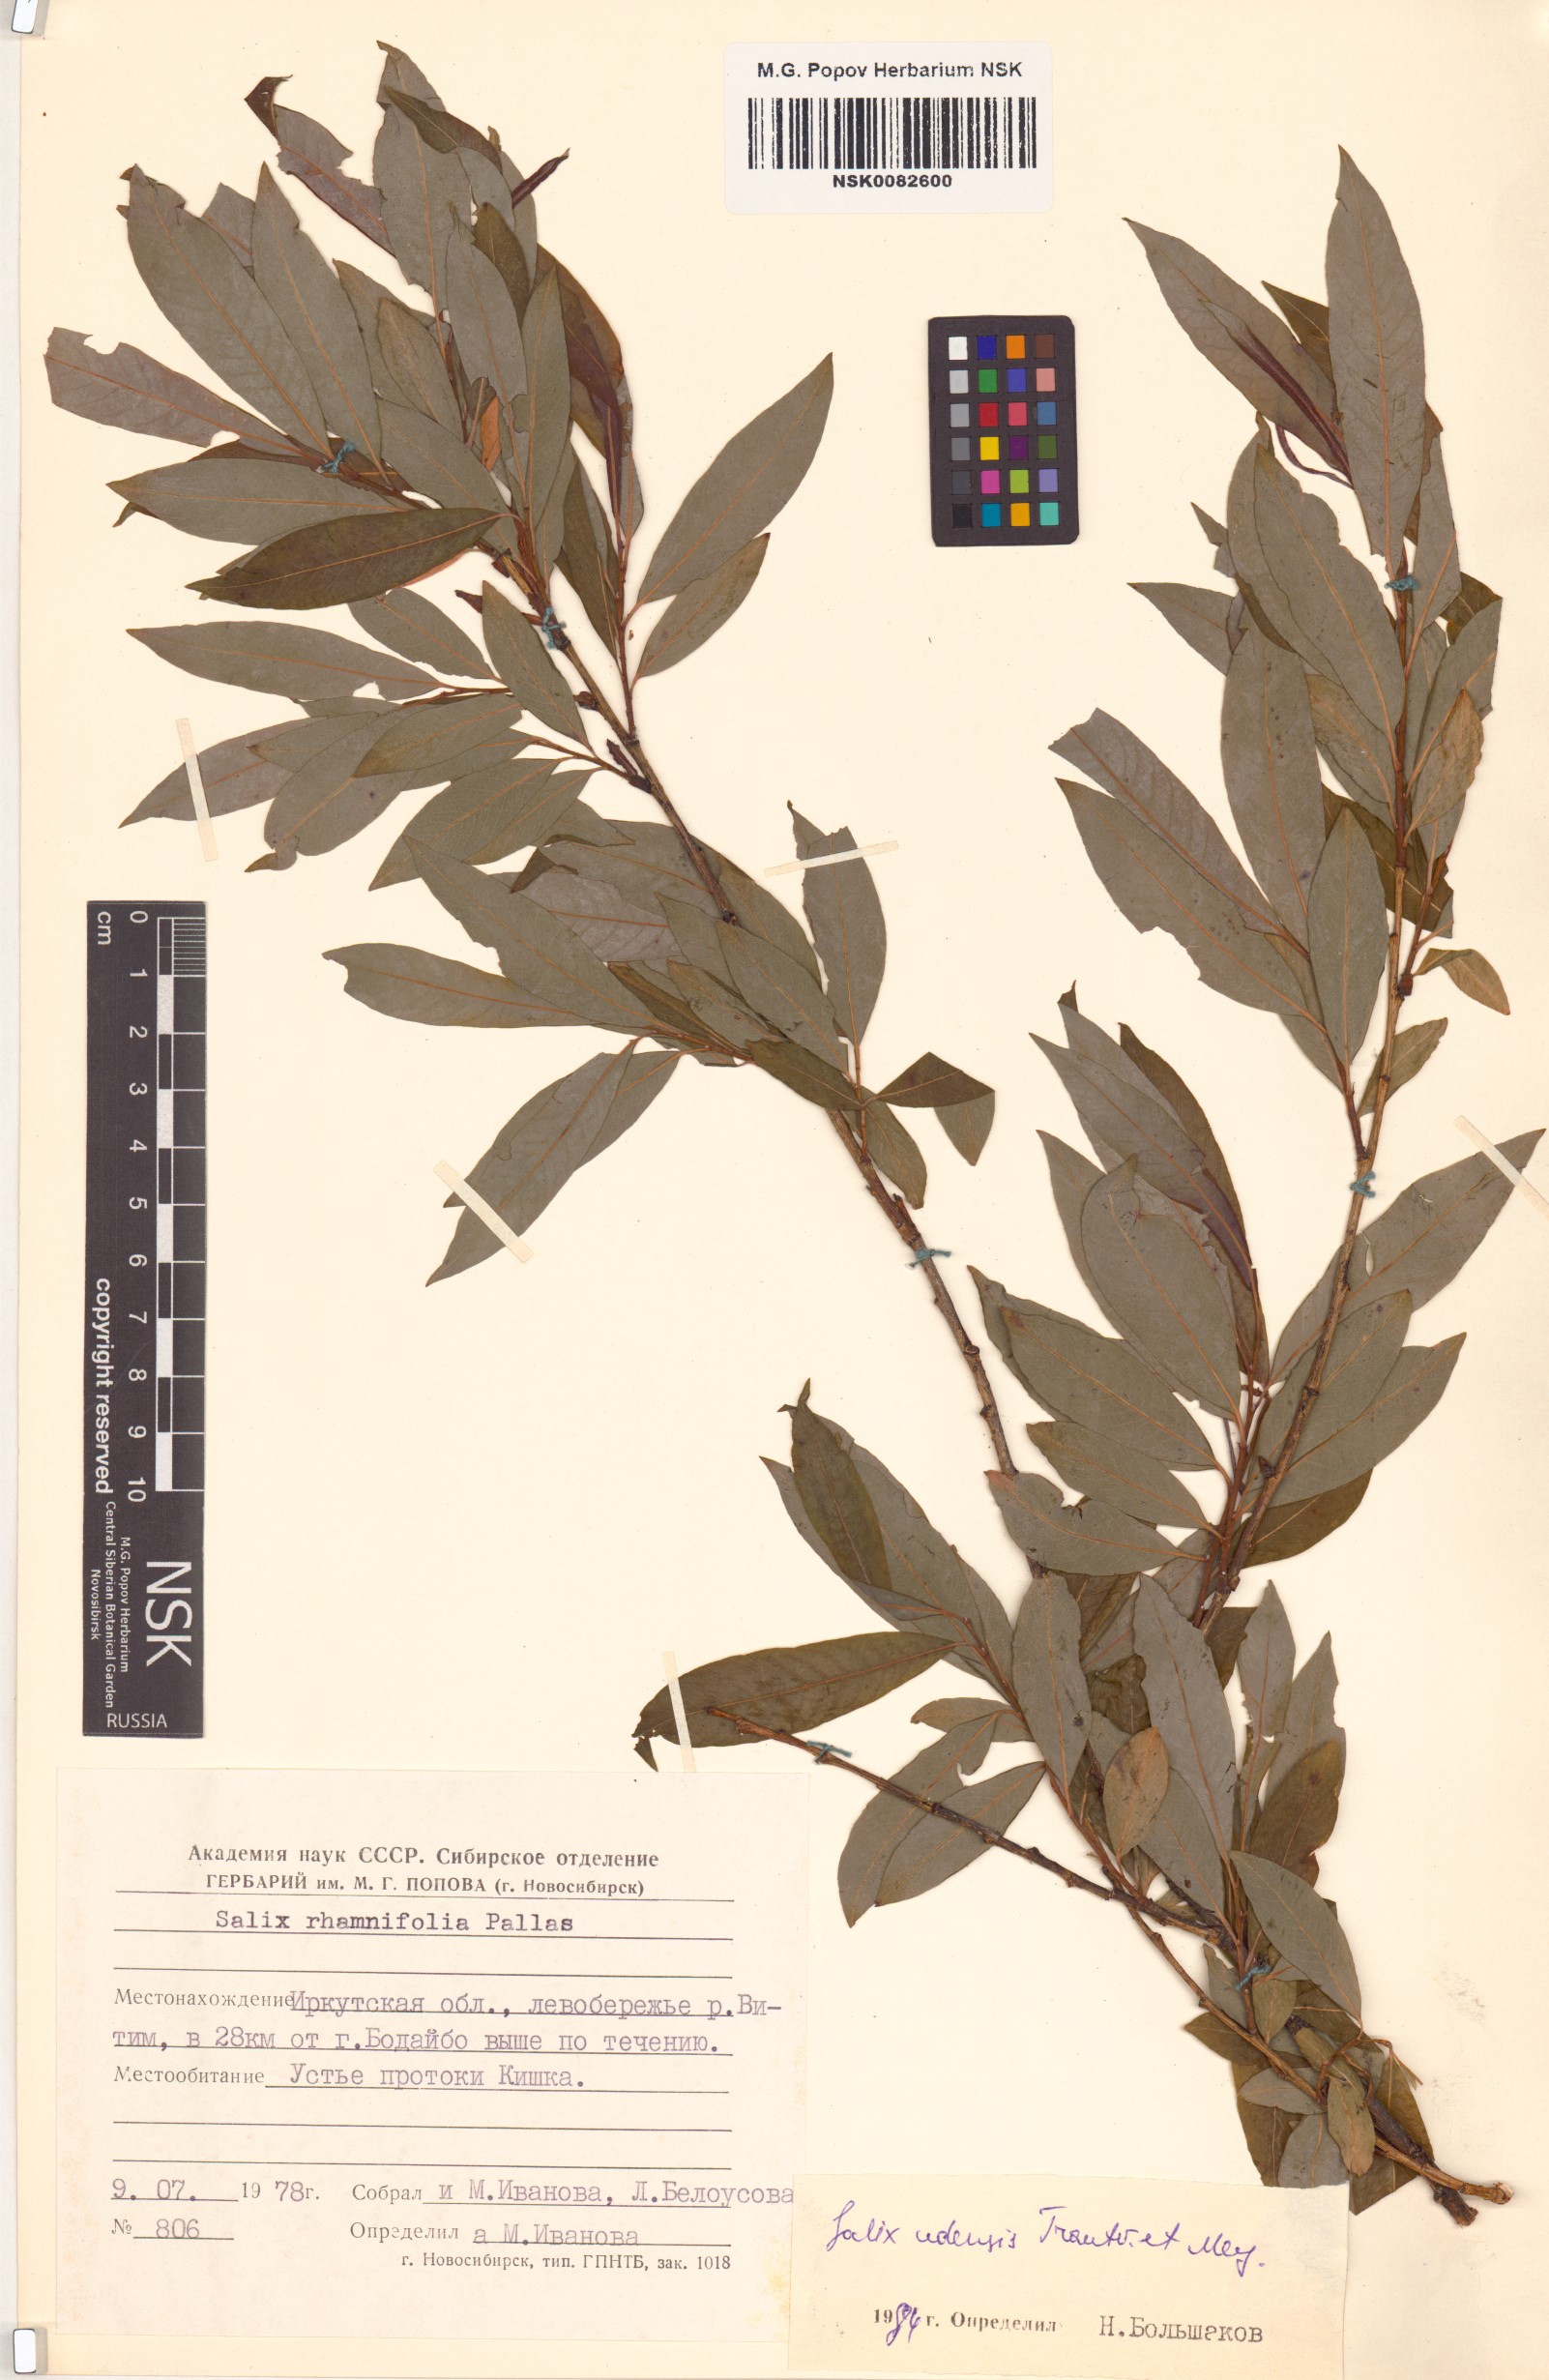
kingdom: Plantae
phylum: Tracheophyta
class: Magnoliopsida
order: Malpighiales
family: Salicaceae
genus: Salix
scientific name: Salix udensis
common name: Sachalin willow
